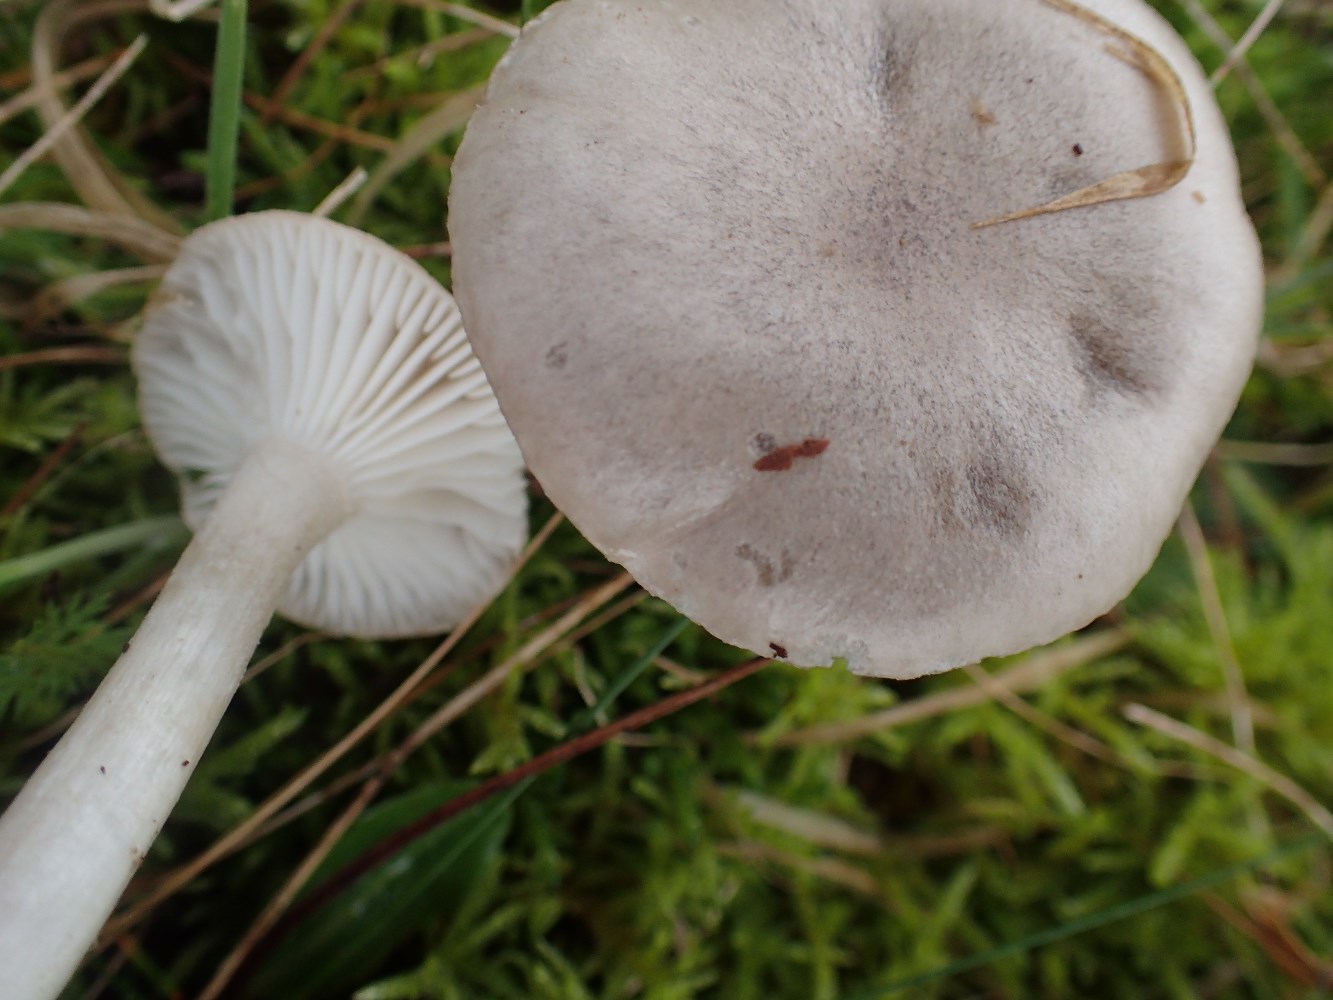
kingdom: Fungi
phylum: Basidiomycota
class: Agaricomycetes
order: Agaricales
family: Hygrophoraceae
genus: Hygrophorus
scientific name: Hygrophorus agathosmus
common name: vellugtende sneglehat
